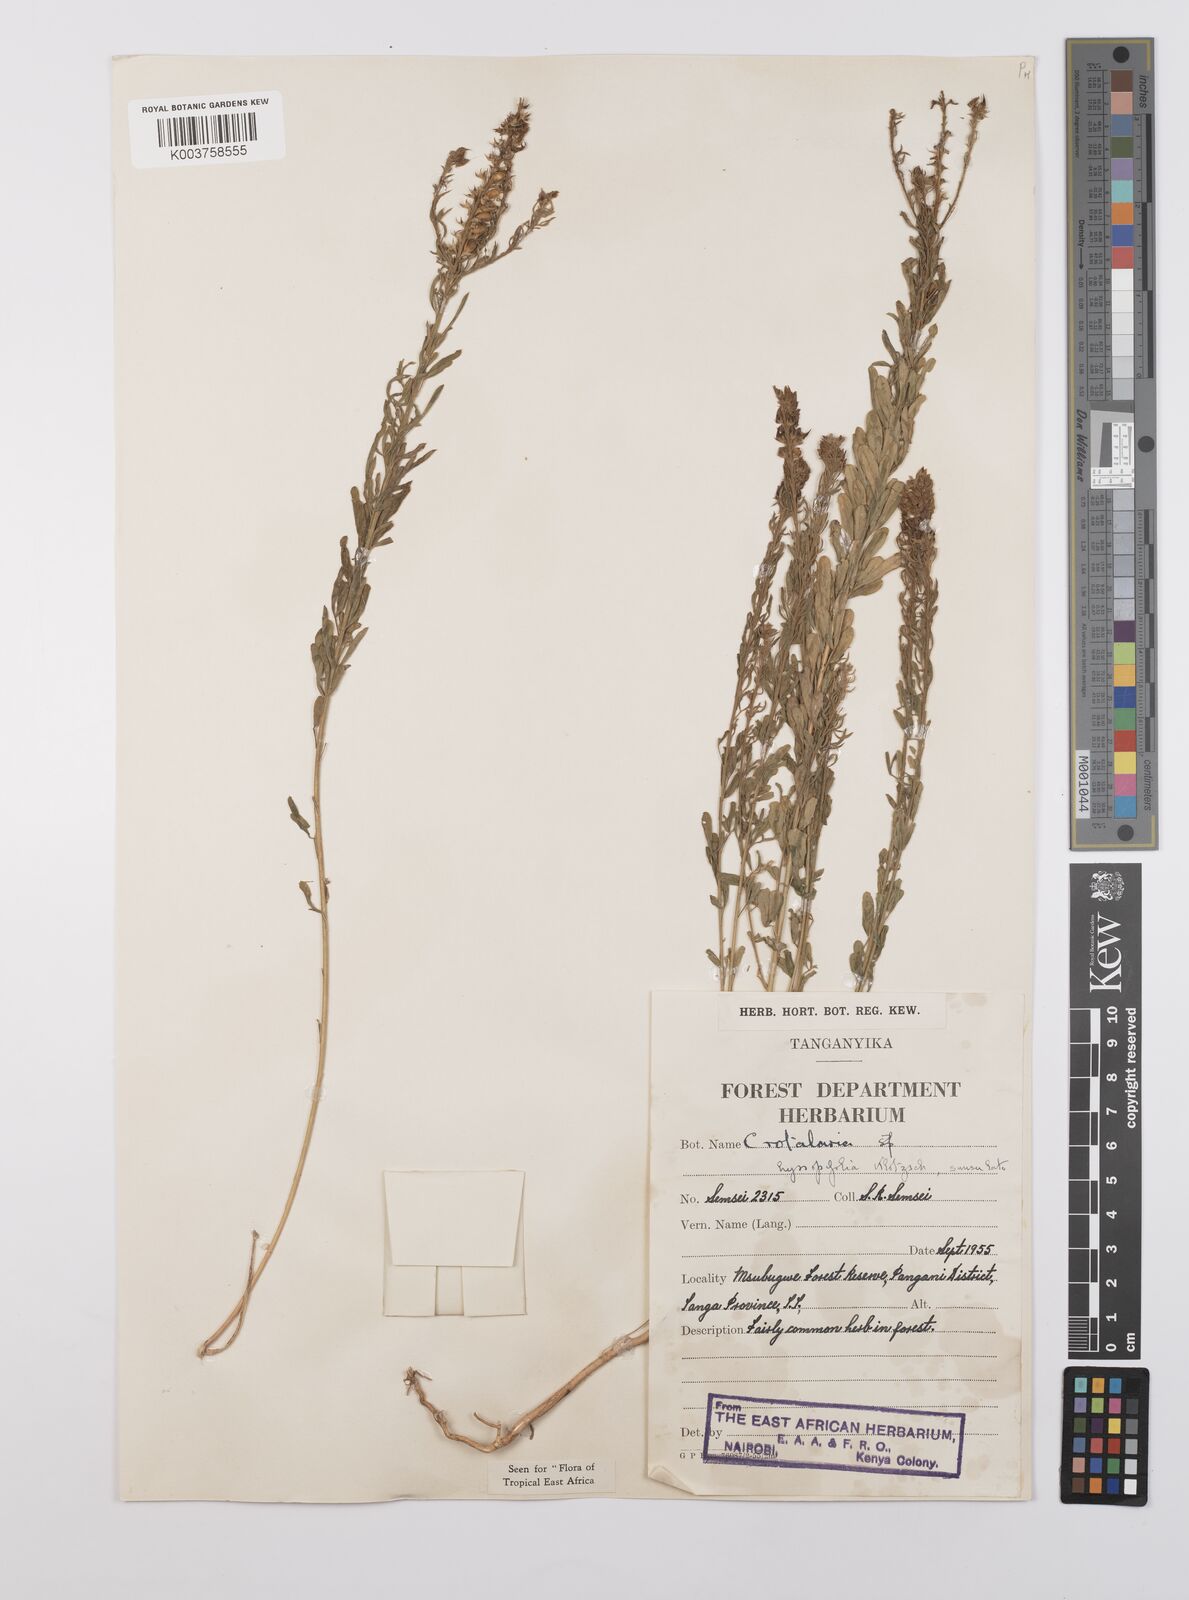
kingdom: Plantae
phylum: Tracheophyta
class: Magnoliopsida
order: Fabales
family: Fabaceae
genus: Crotalaria
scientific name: Crotalaria hyssopifolia
